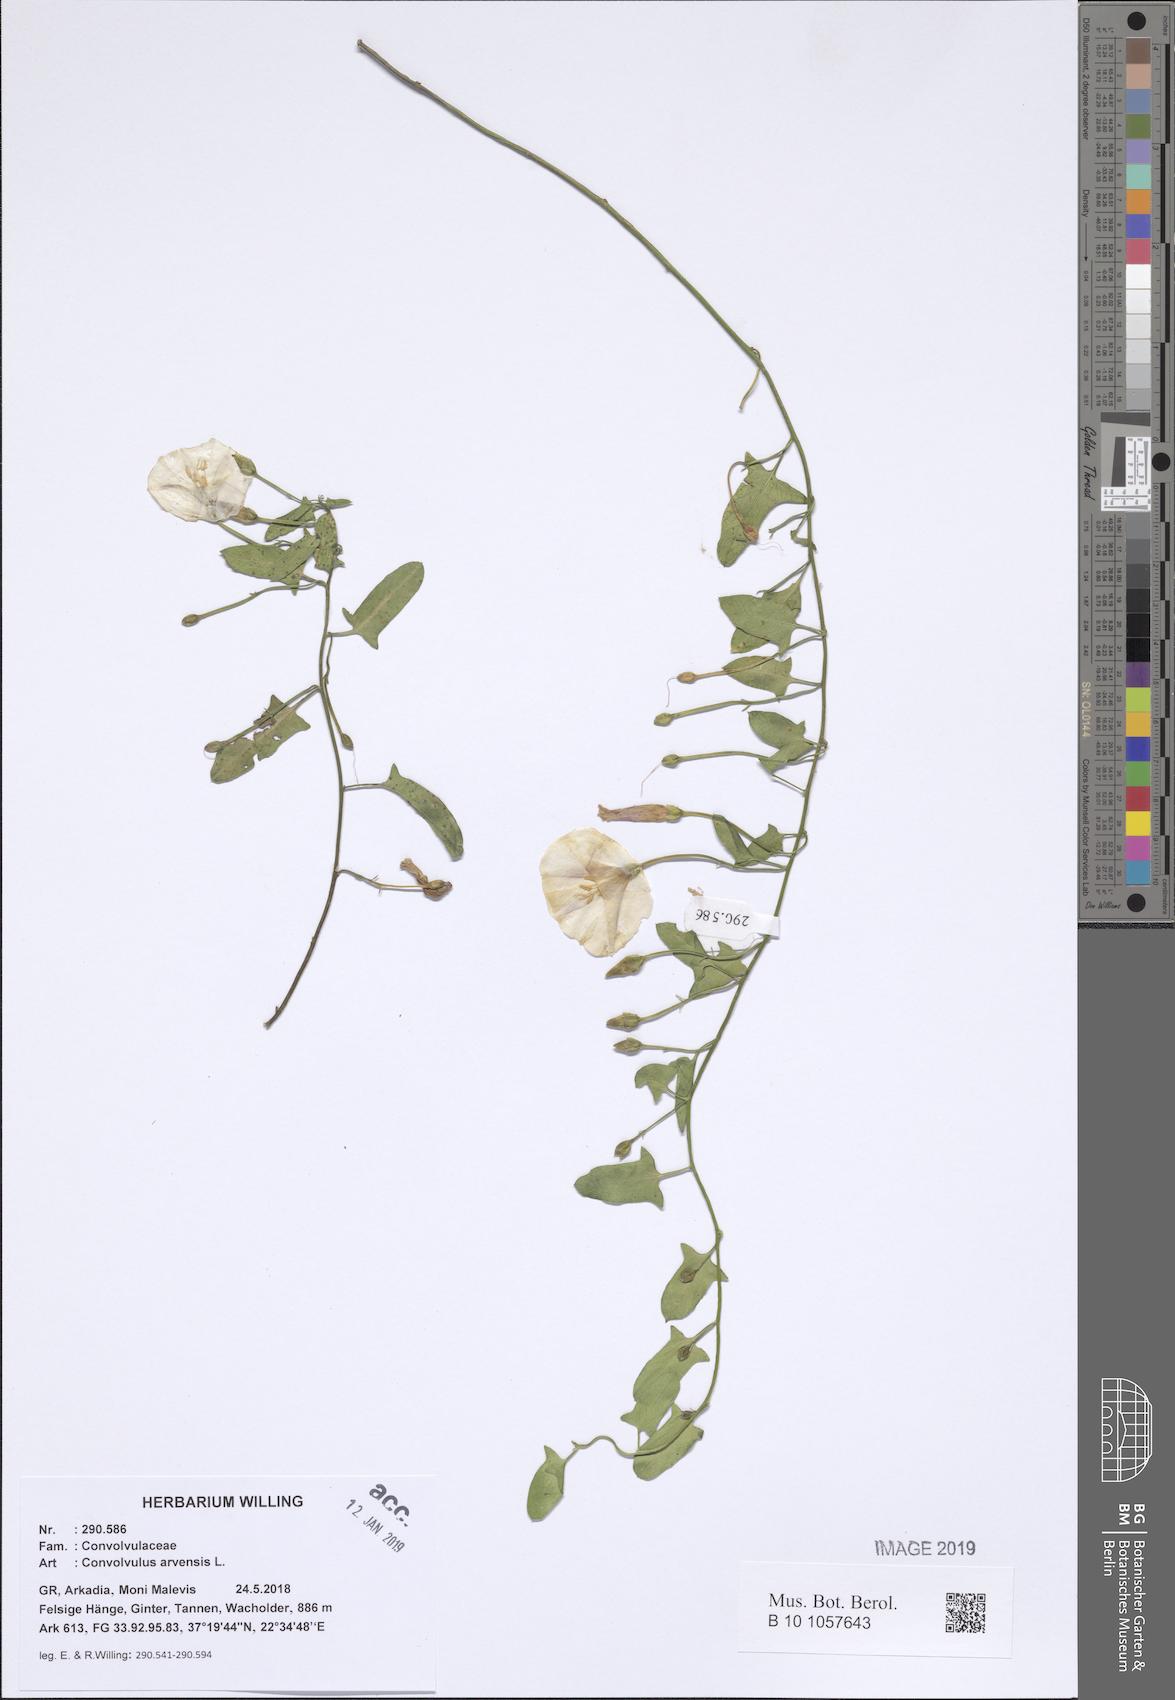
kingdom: Plantae
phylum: Tracheophyta
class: Magnoliopsida
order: Solanales
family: Convolvulaceae
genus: Convolvulus
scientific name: Convolvulus arvensis
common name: Field bindweed
